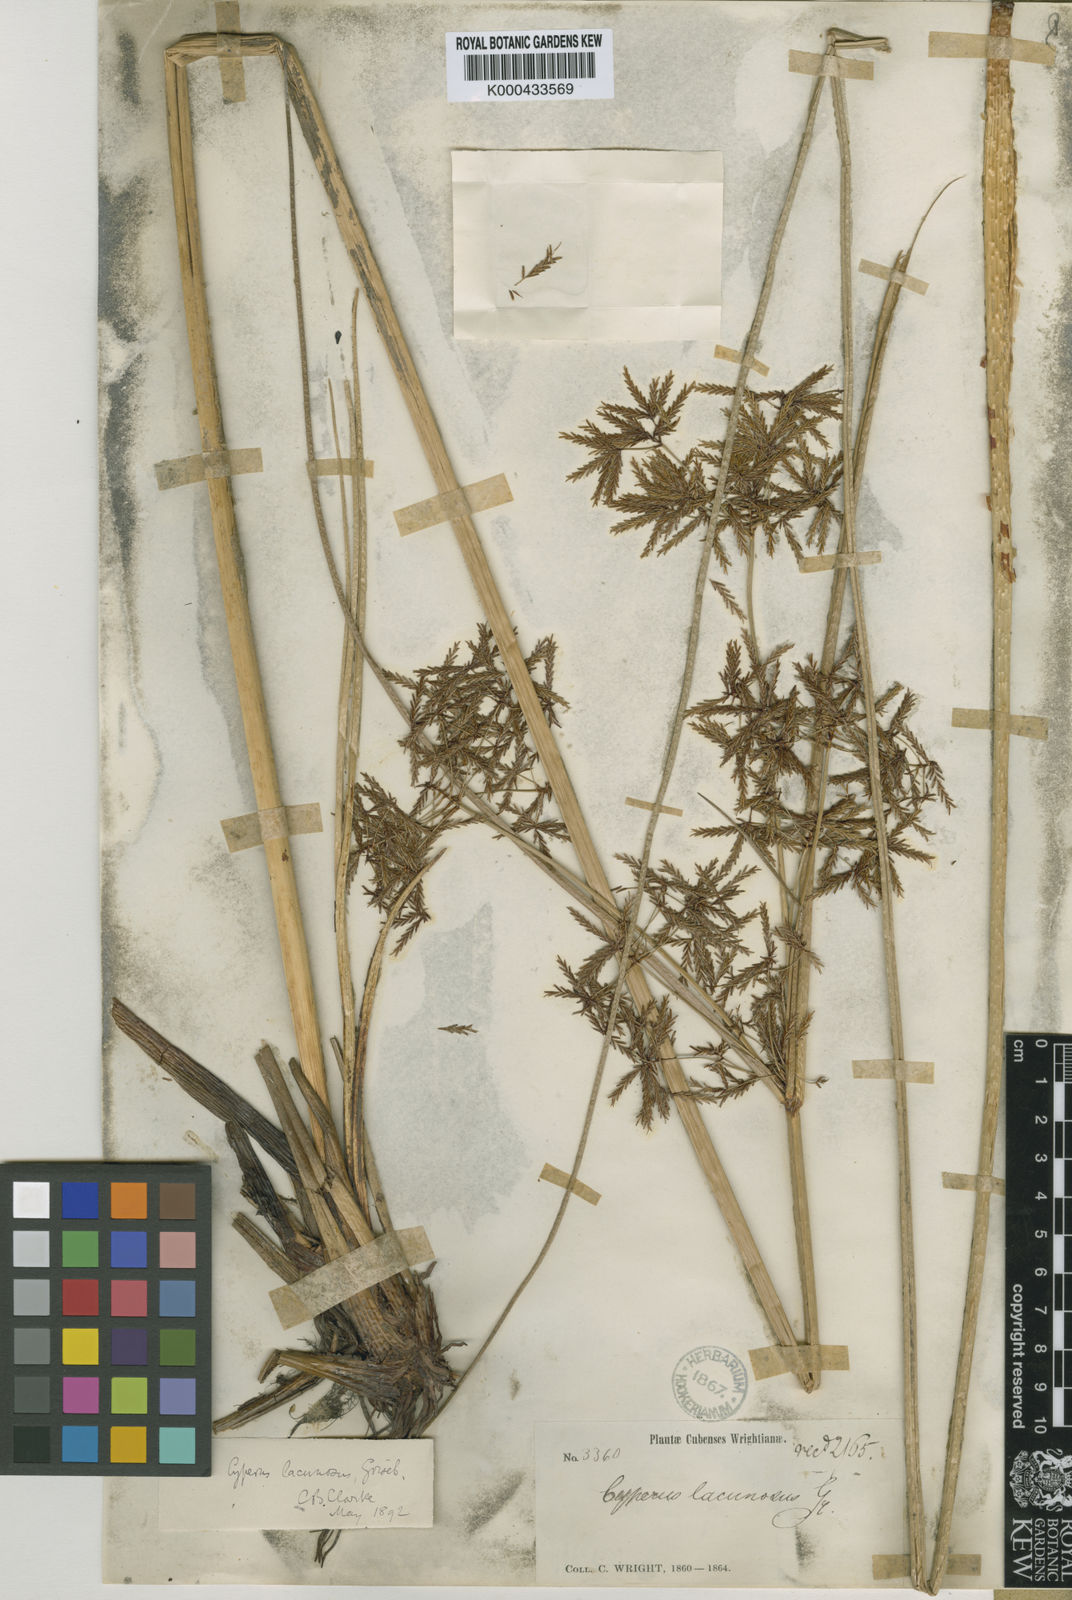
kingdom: Plantae
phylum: Tracheophyta
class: Liliopsida
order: Poales
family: Cyperaceae
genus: Cyperus
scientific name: Cyperus lacunosus
